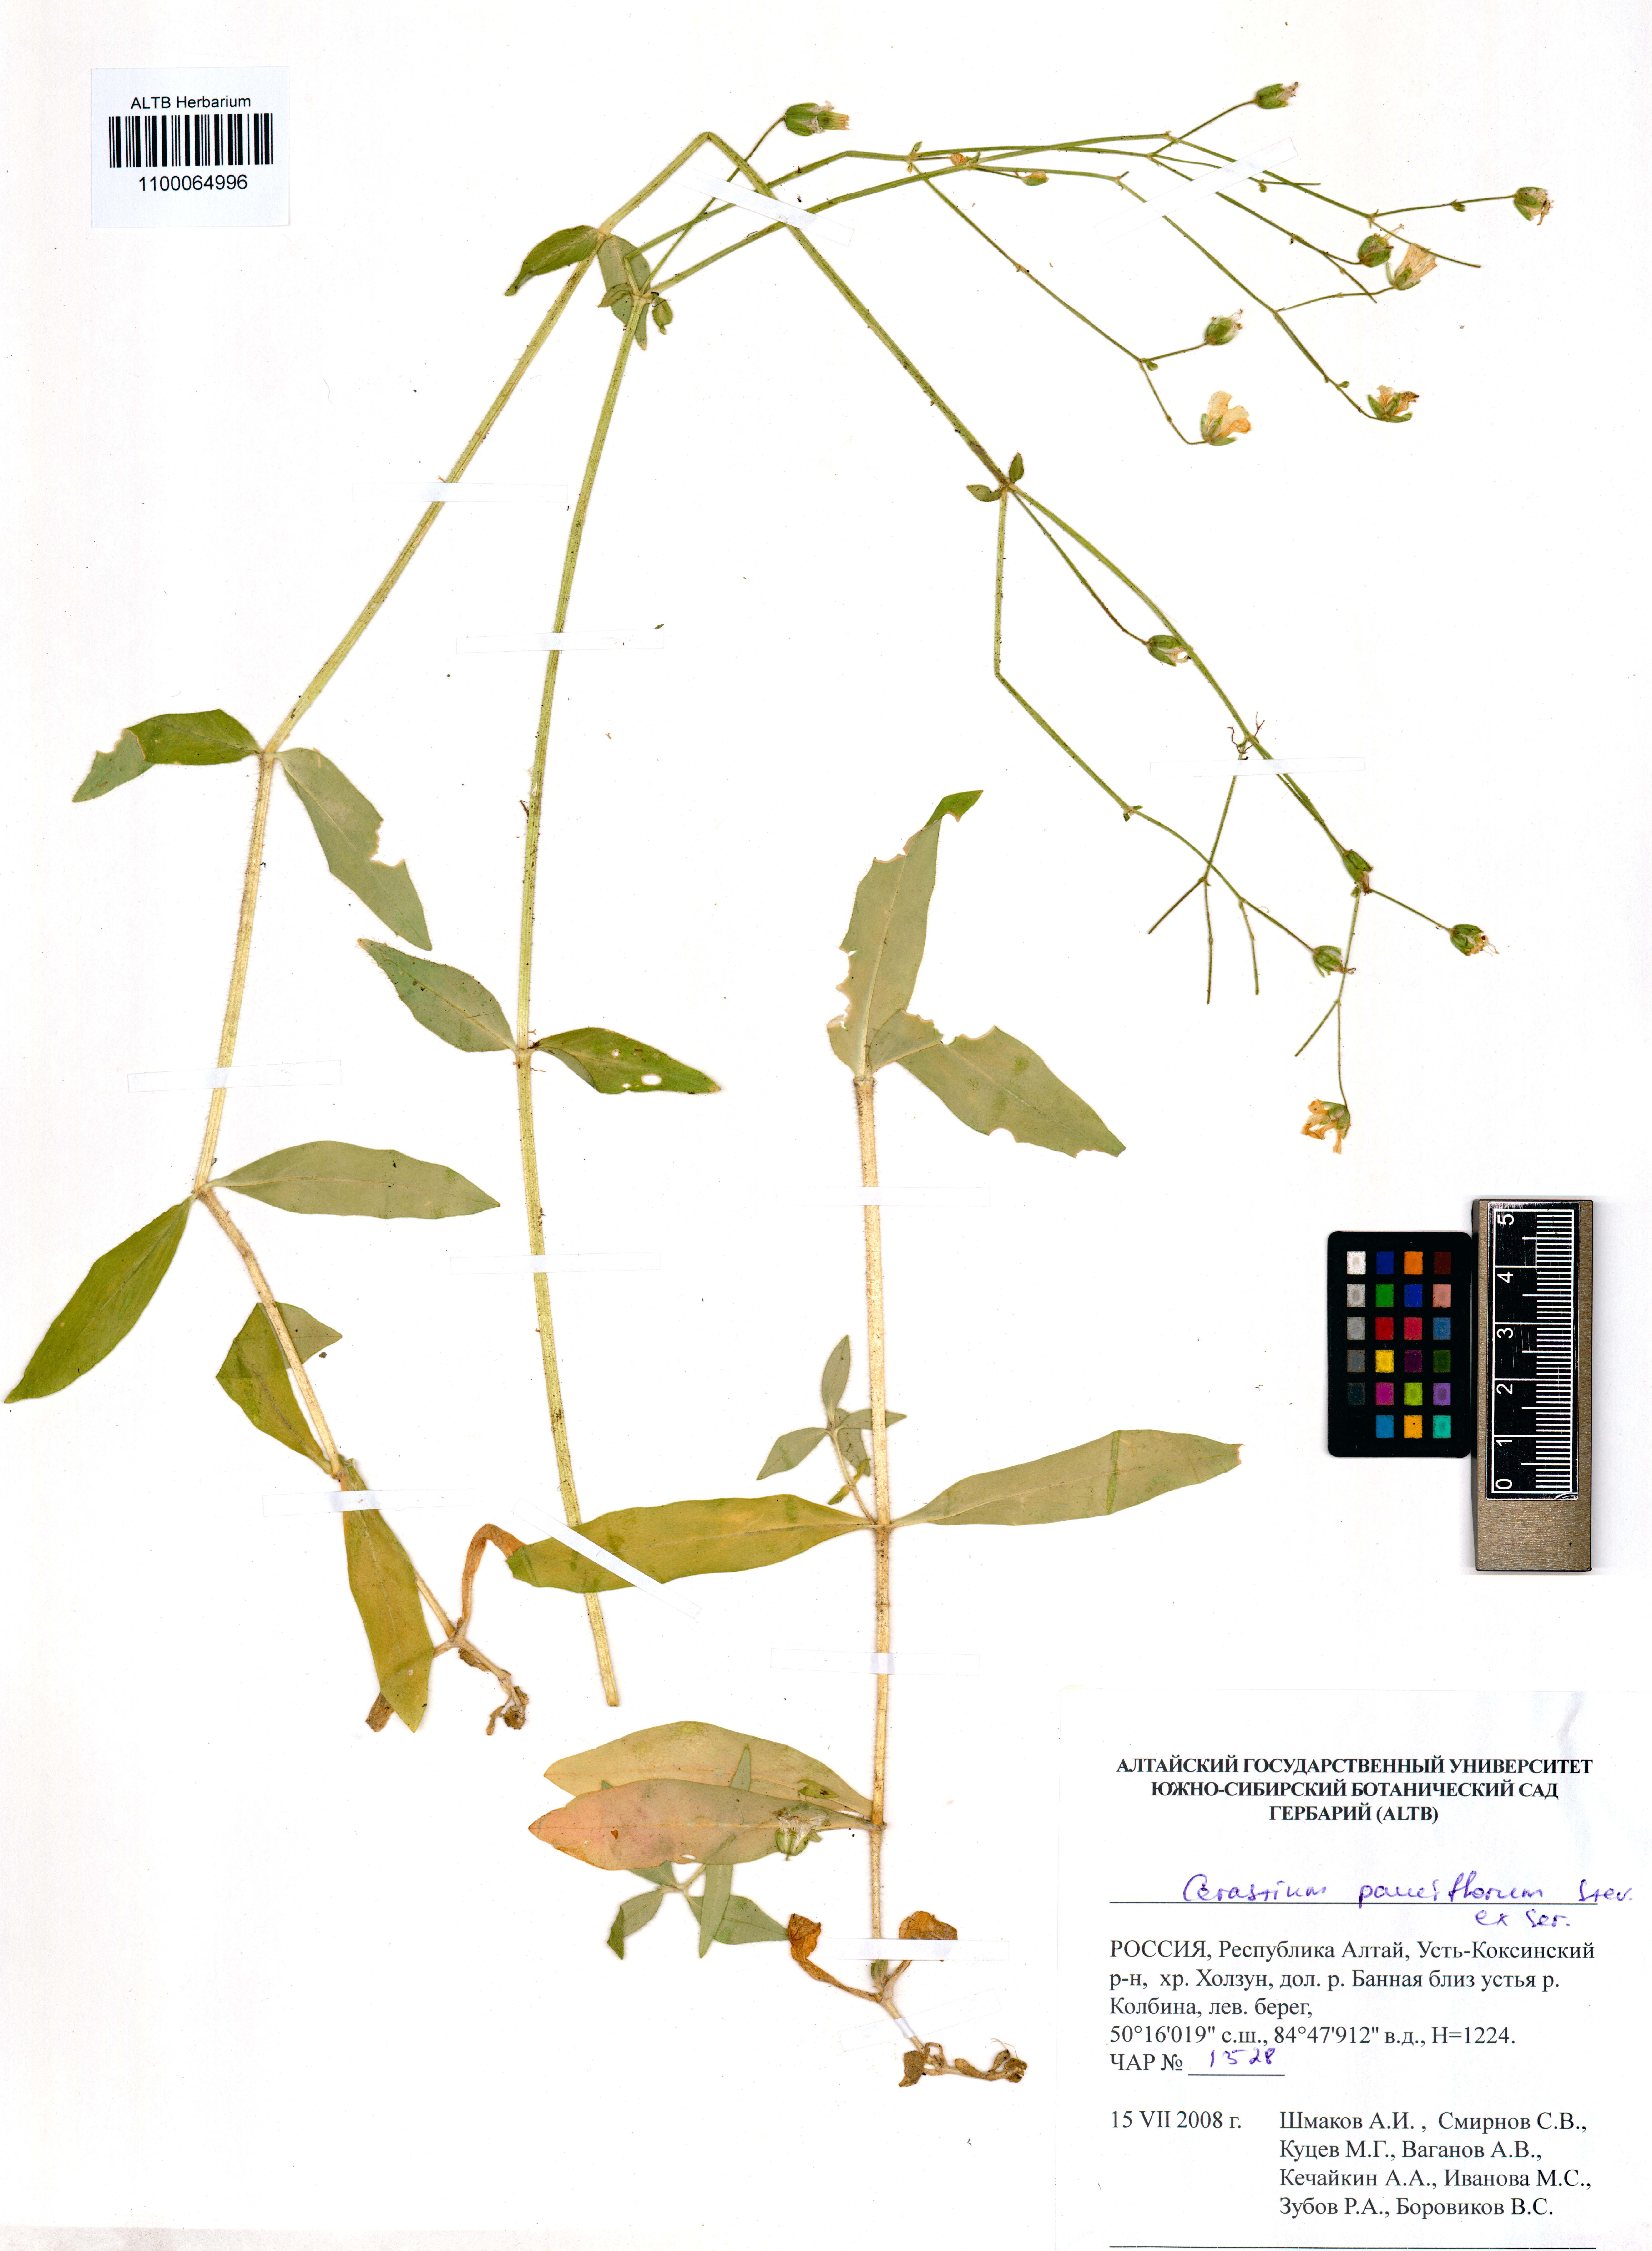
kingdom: Plantae
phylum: Tracheophyta
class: Magnoliopsida
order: Caryophyllales
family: Caryophyllaceae
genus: Cerastium
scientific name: Cerastium pauciflorum
